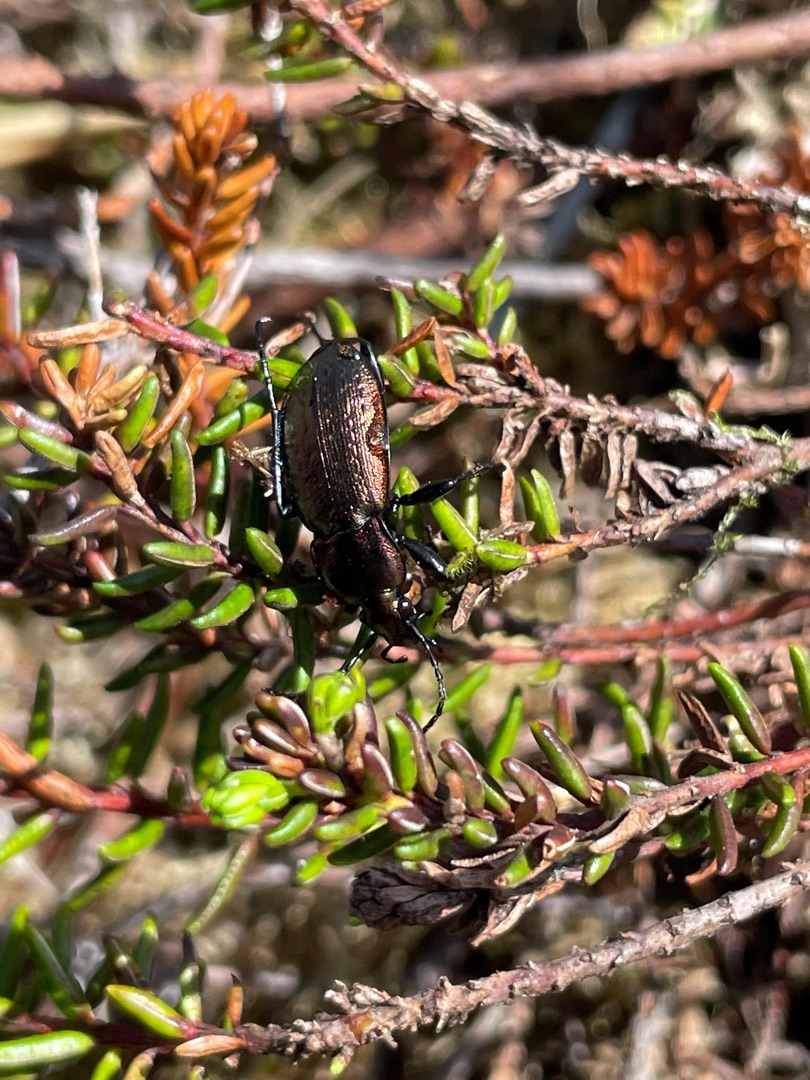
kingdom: Animalia
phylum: Arthropoda
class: Insecta
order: Coleoptera
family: Carabidae
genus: Carabus
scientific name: Carabus arvensis
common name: Lyngløber
